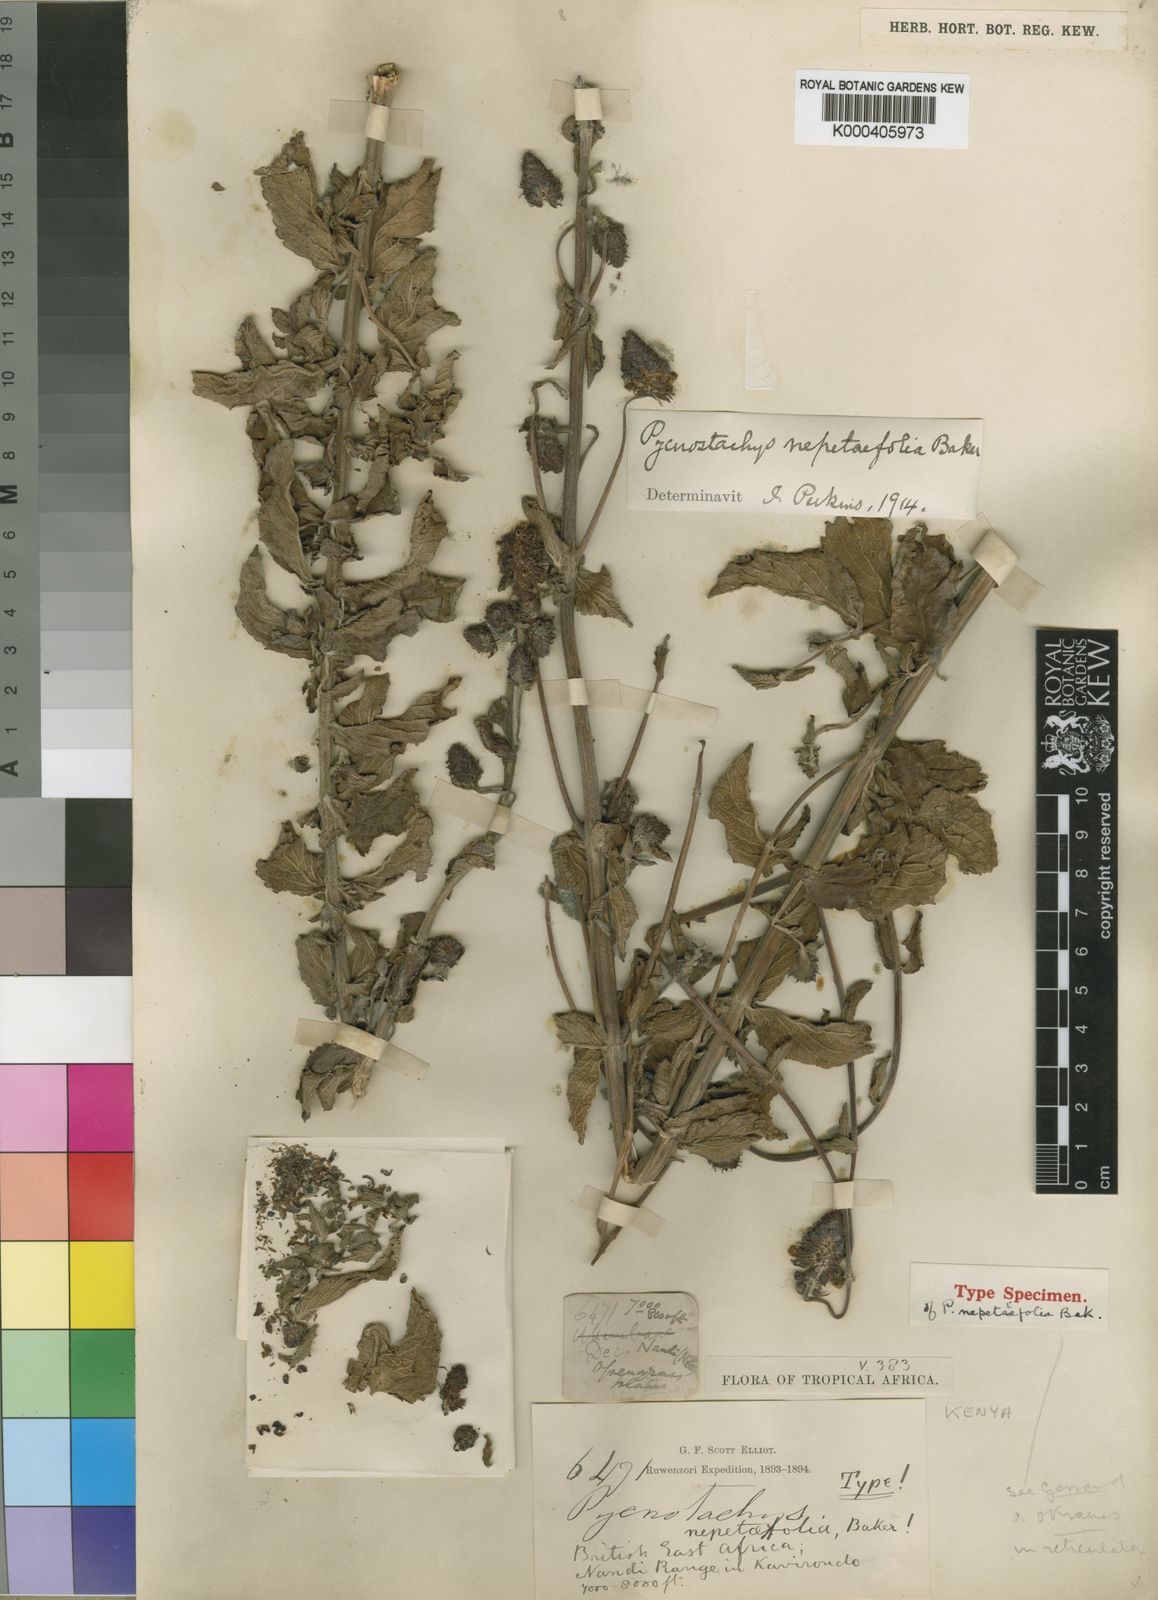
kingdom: Plantae
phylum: Tracheophyta
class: Magnoliopsida
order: Lamiales
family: Lamiaceae
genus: Coleus
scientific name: Coleus nepetifolius
